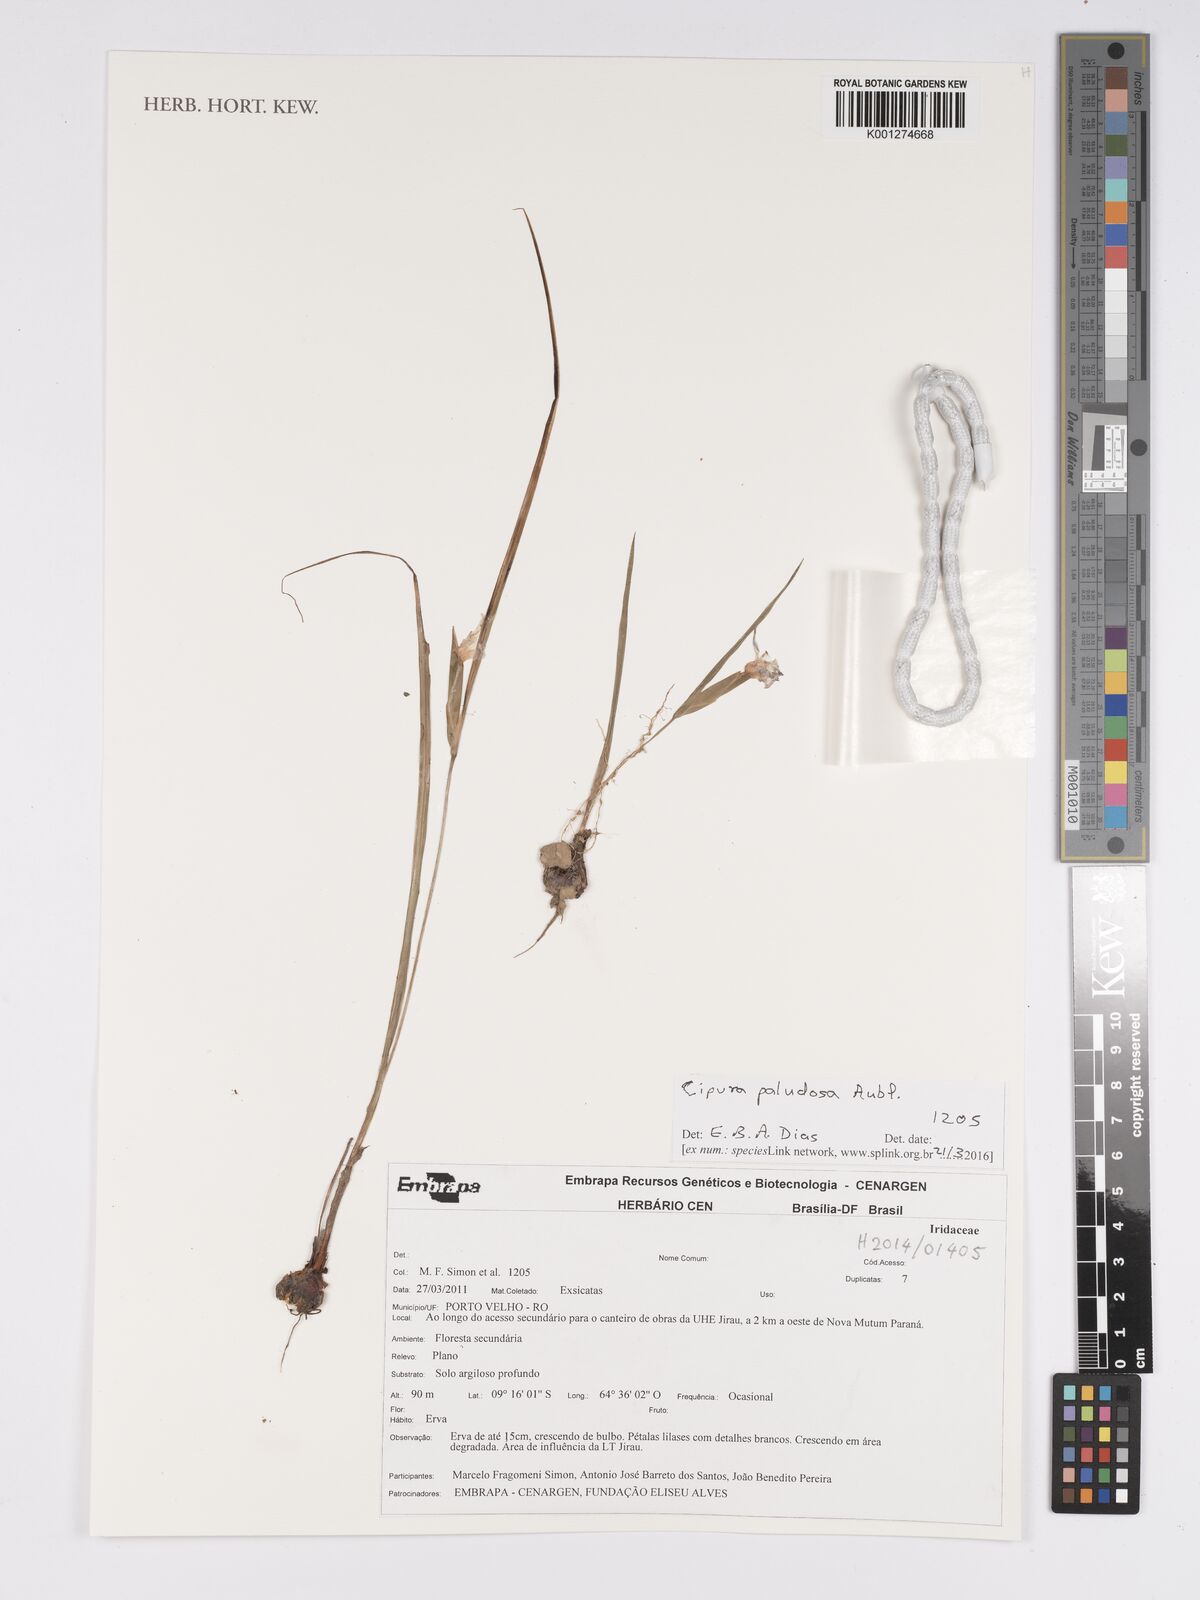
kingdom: Plantae
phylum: Tracheophyta
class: Liliopsida
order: Asparagales
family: Iridaceae
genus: Cipura
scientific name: Cipura paludosa
